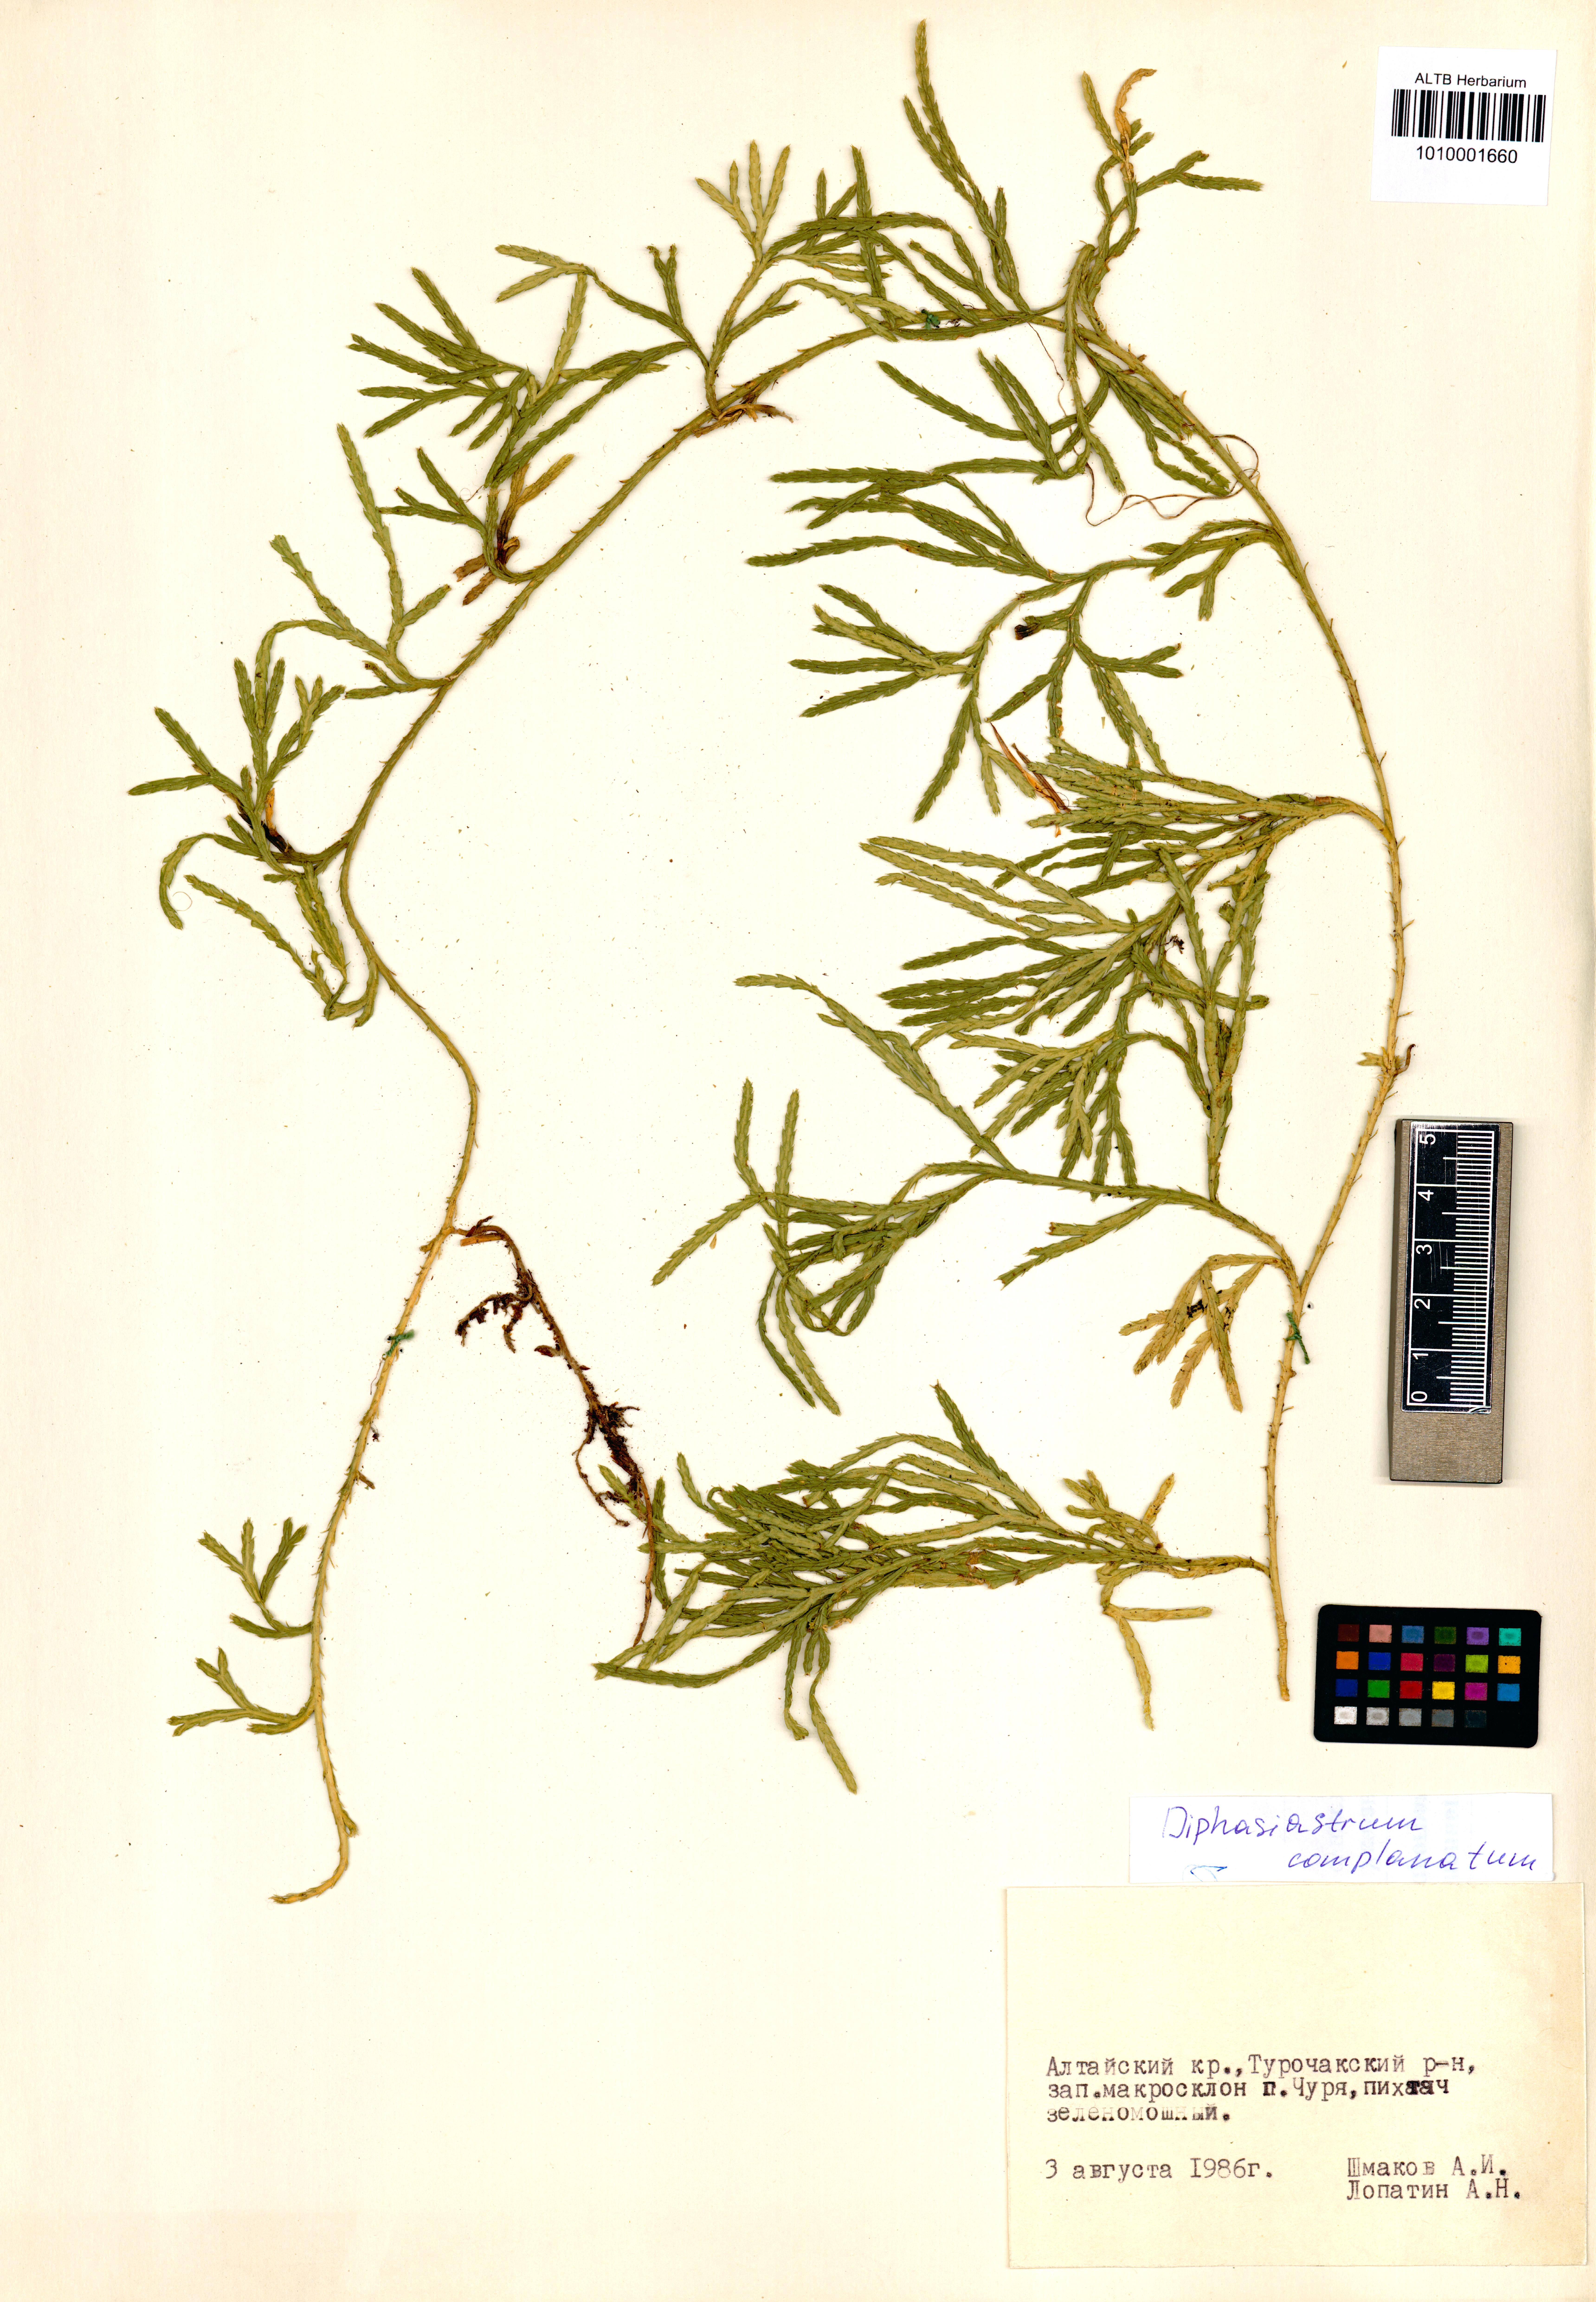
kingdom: Plantae
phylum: Tracheophyta
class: Lycopodiopsida
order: Lycopodiales
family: Lycopodiaceae
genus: Diphasiastrum
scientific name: Diphasiastrum complanatum
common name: Northern running-pine
